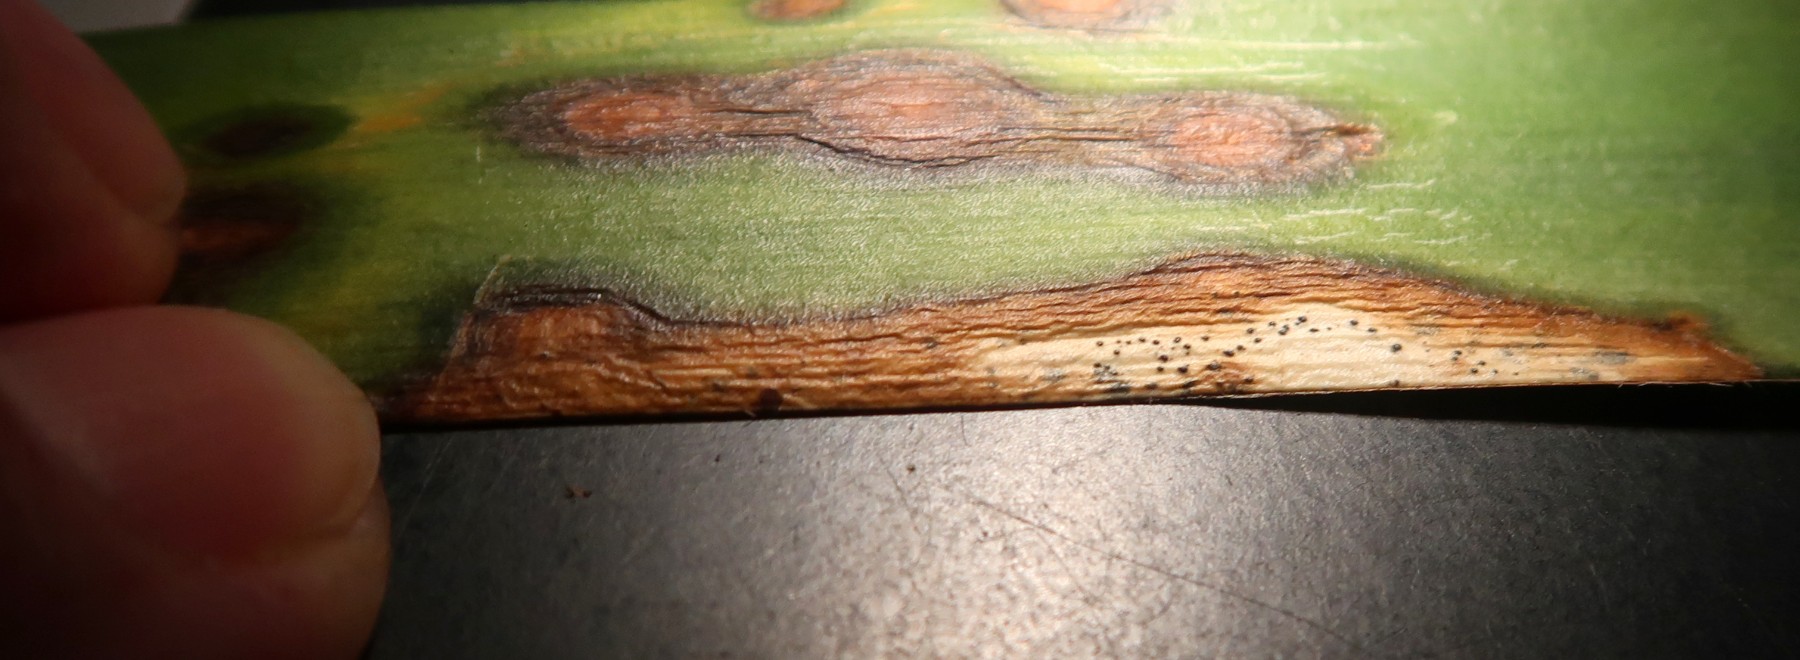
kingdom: Fungi
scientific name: Fungi
